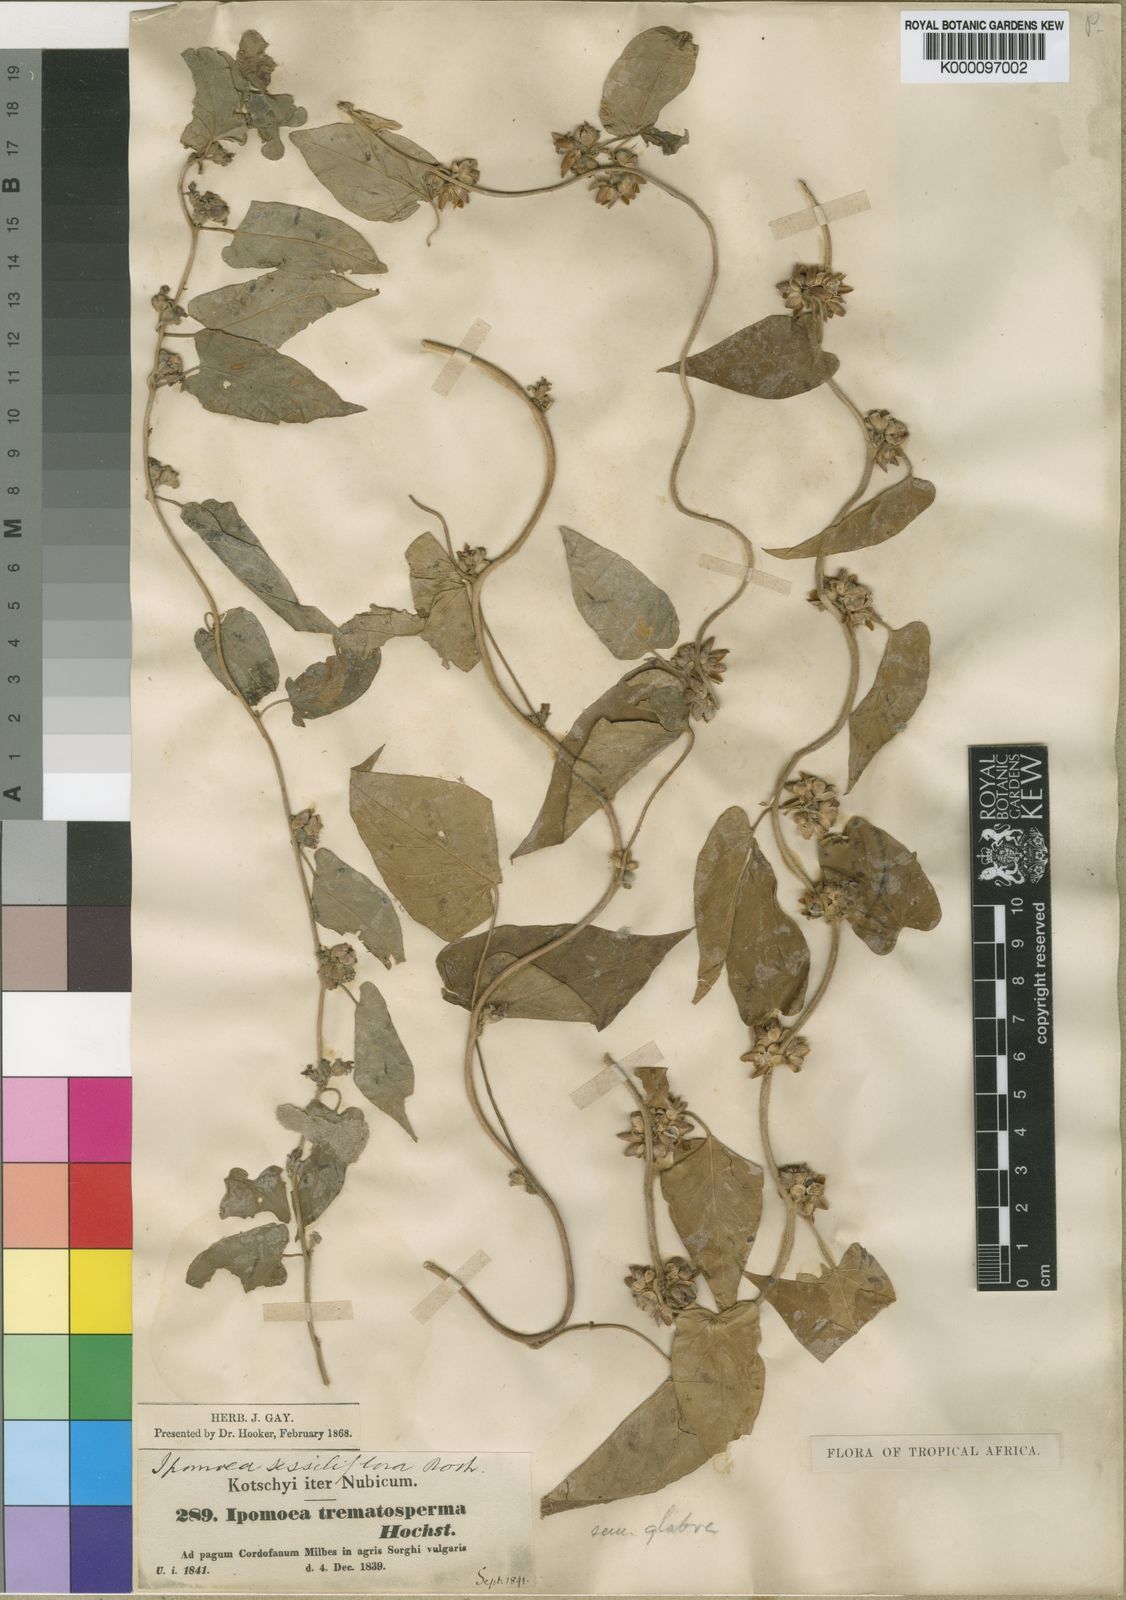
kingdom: Plantae
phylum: Tracheophyta
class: Magnoliopsida
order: Solanales
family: Convolvulaceae
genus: Ipomoea
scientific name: Ipomoea eriocarpa
